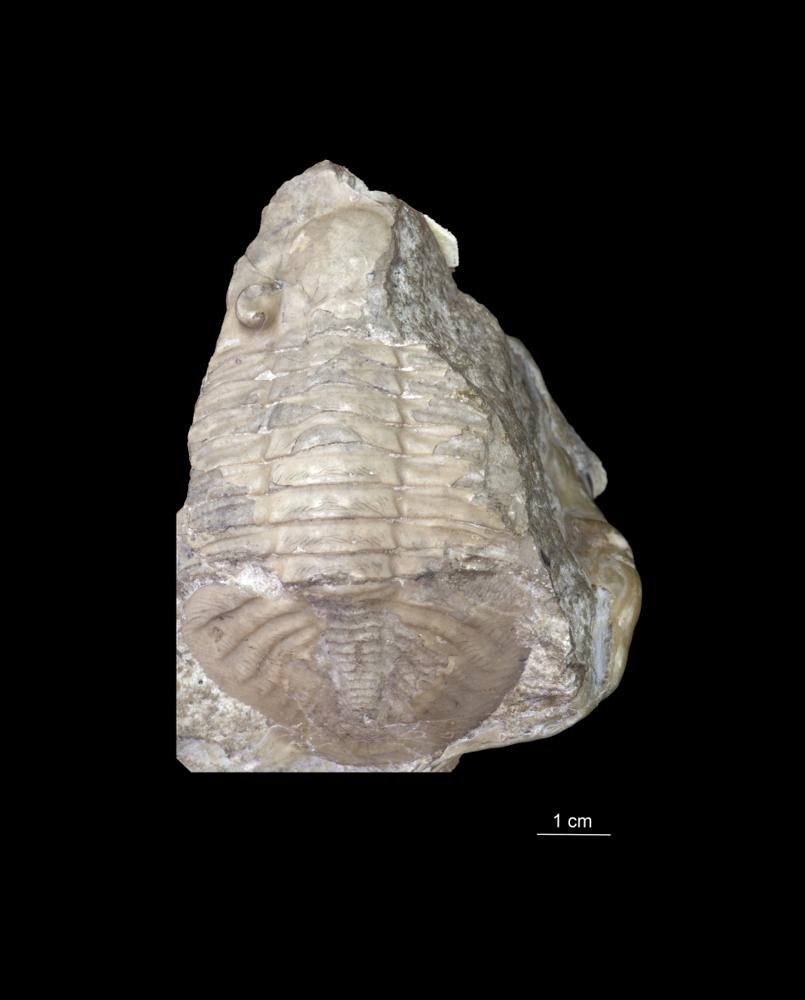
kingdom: Animalia
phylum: Arthropoda
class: Trilobita
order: Asaphida
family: Asaphidae
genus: Ogygites
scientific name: Ogygites
